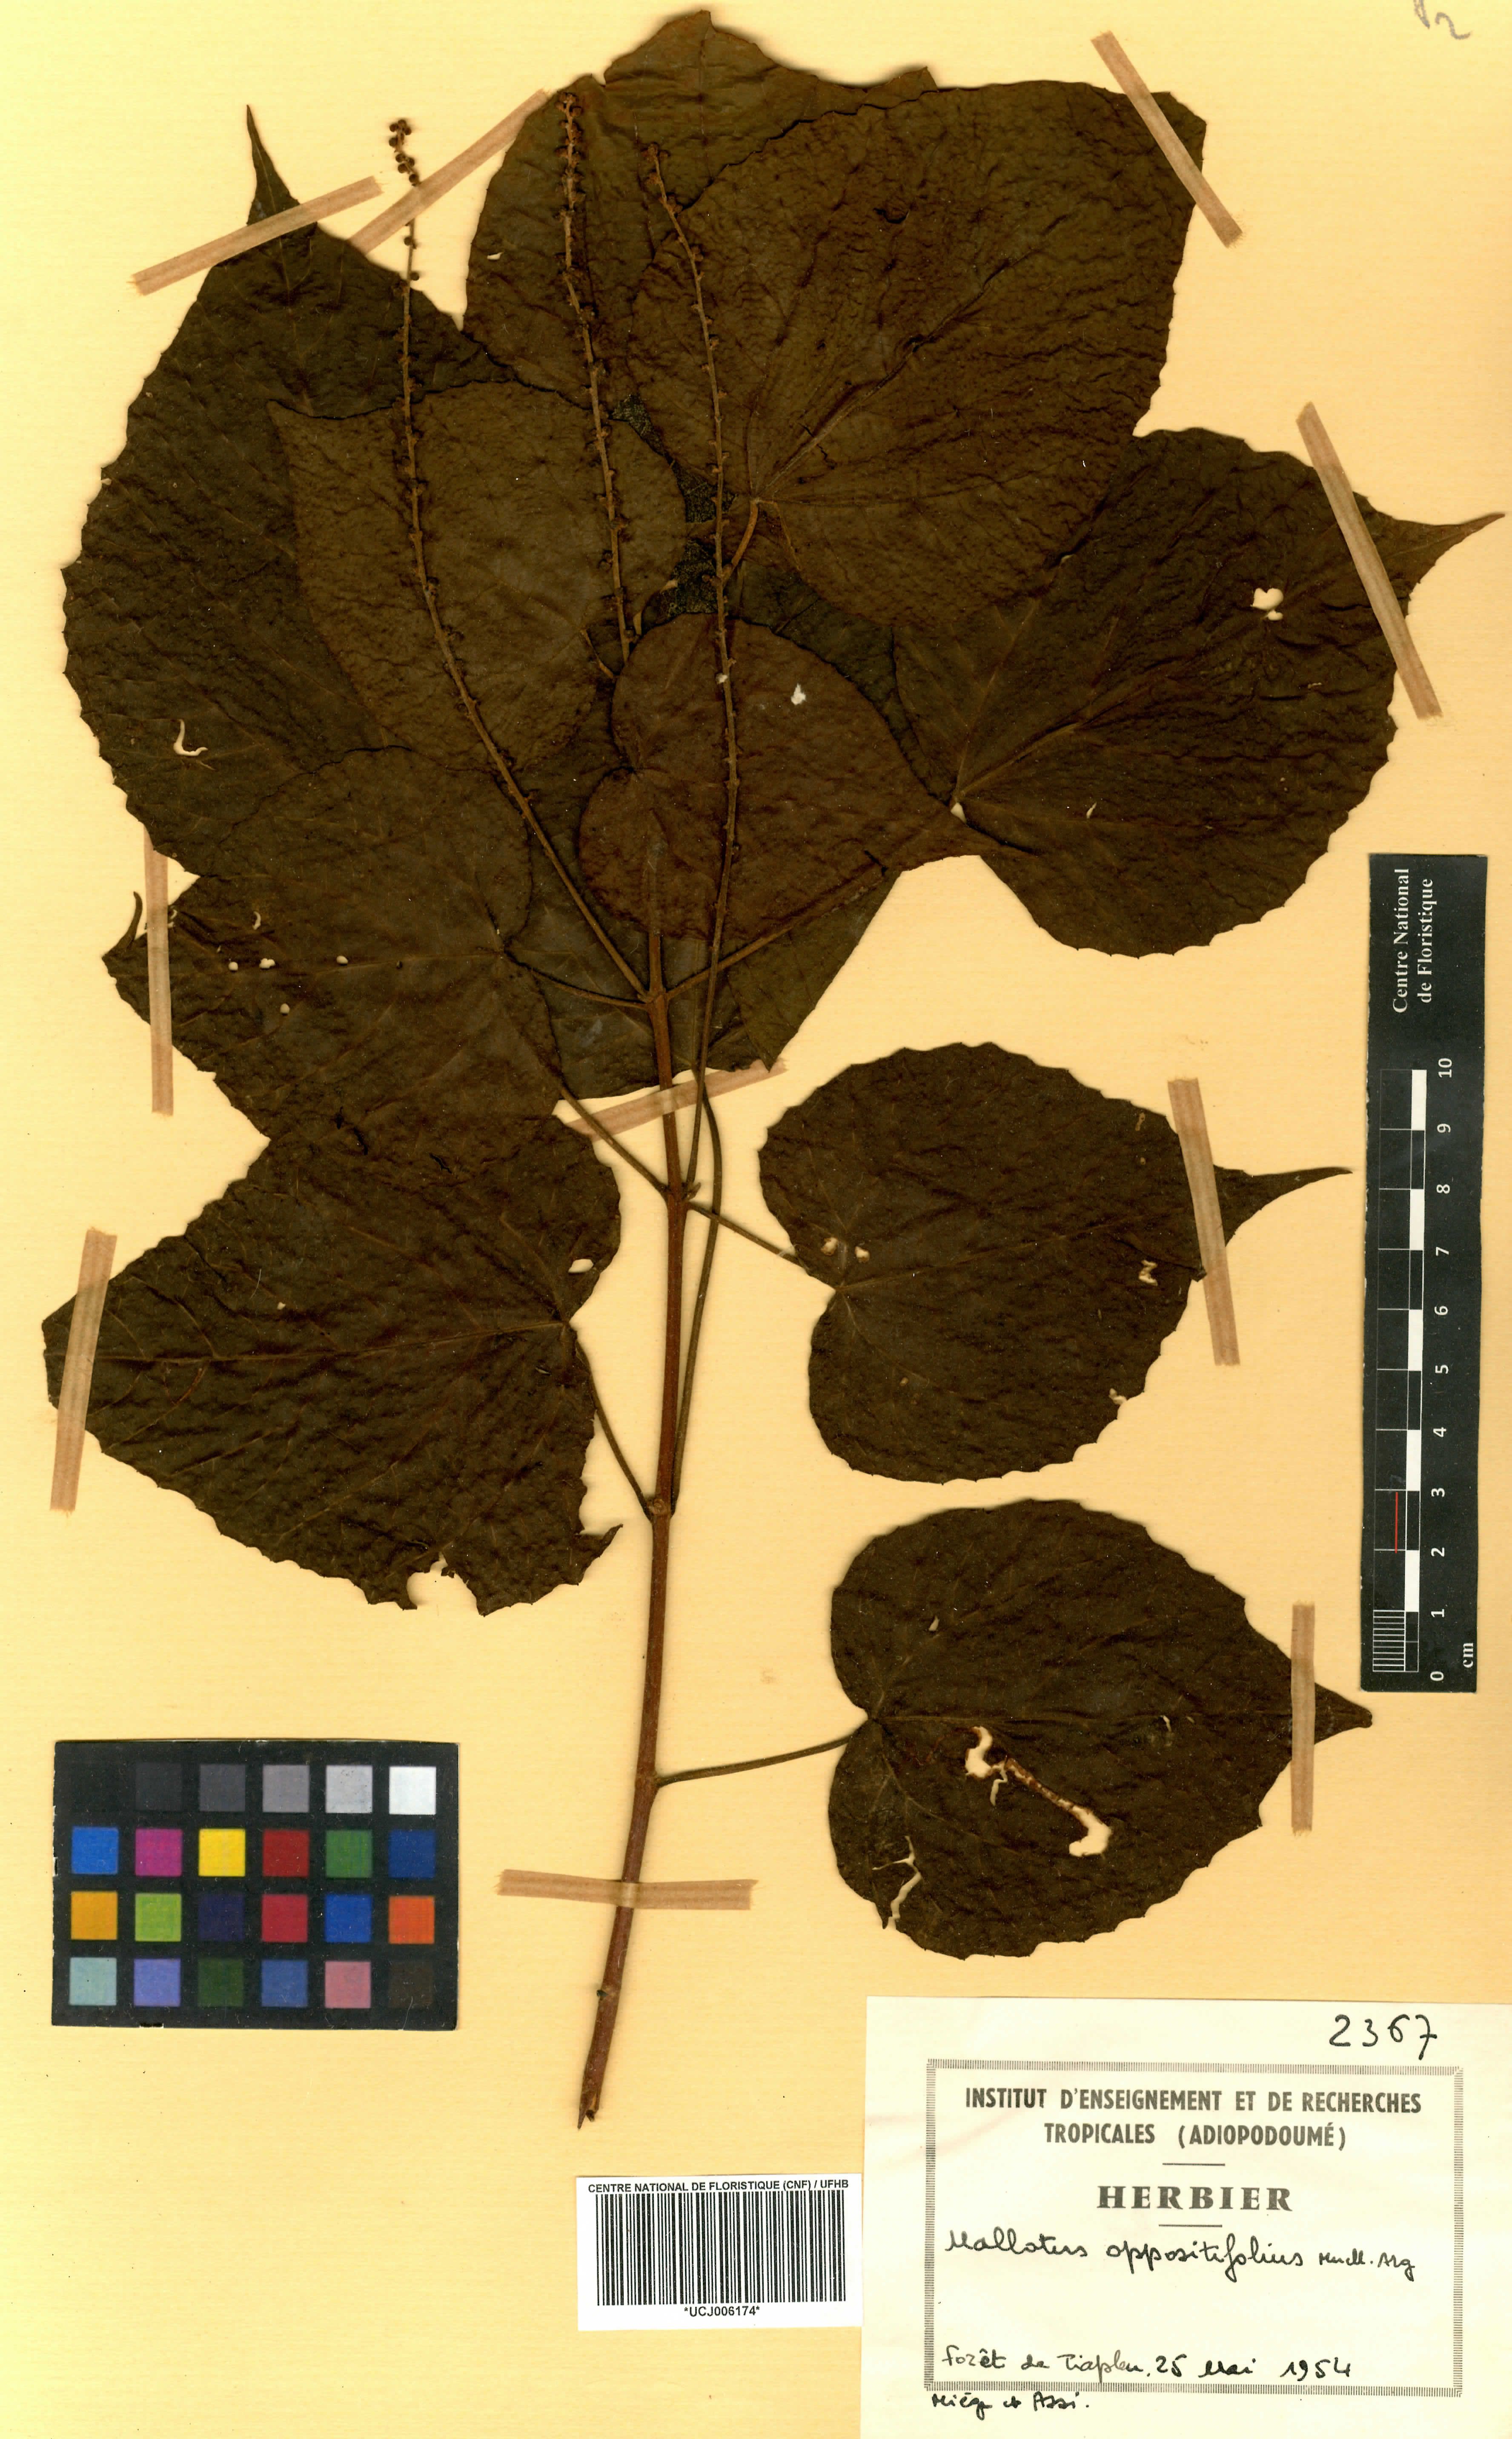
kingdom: Plantae
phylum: Tracheophyta
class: Magnoliopsida
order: Malpighiales
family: Euphorbiaceae
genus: Mallotus
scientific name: Mallotus oppositifolius
